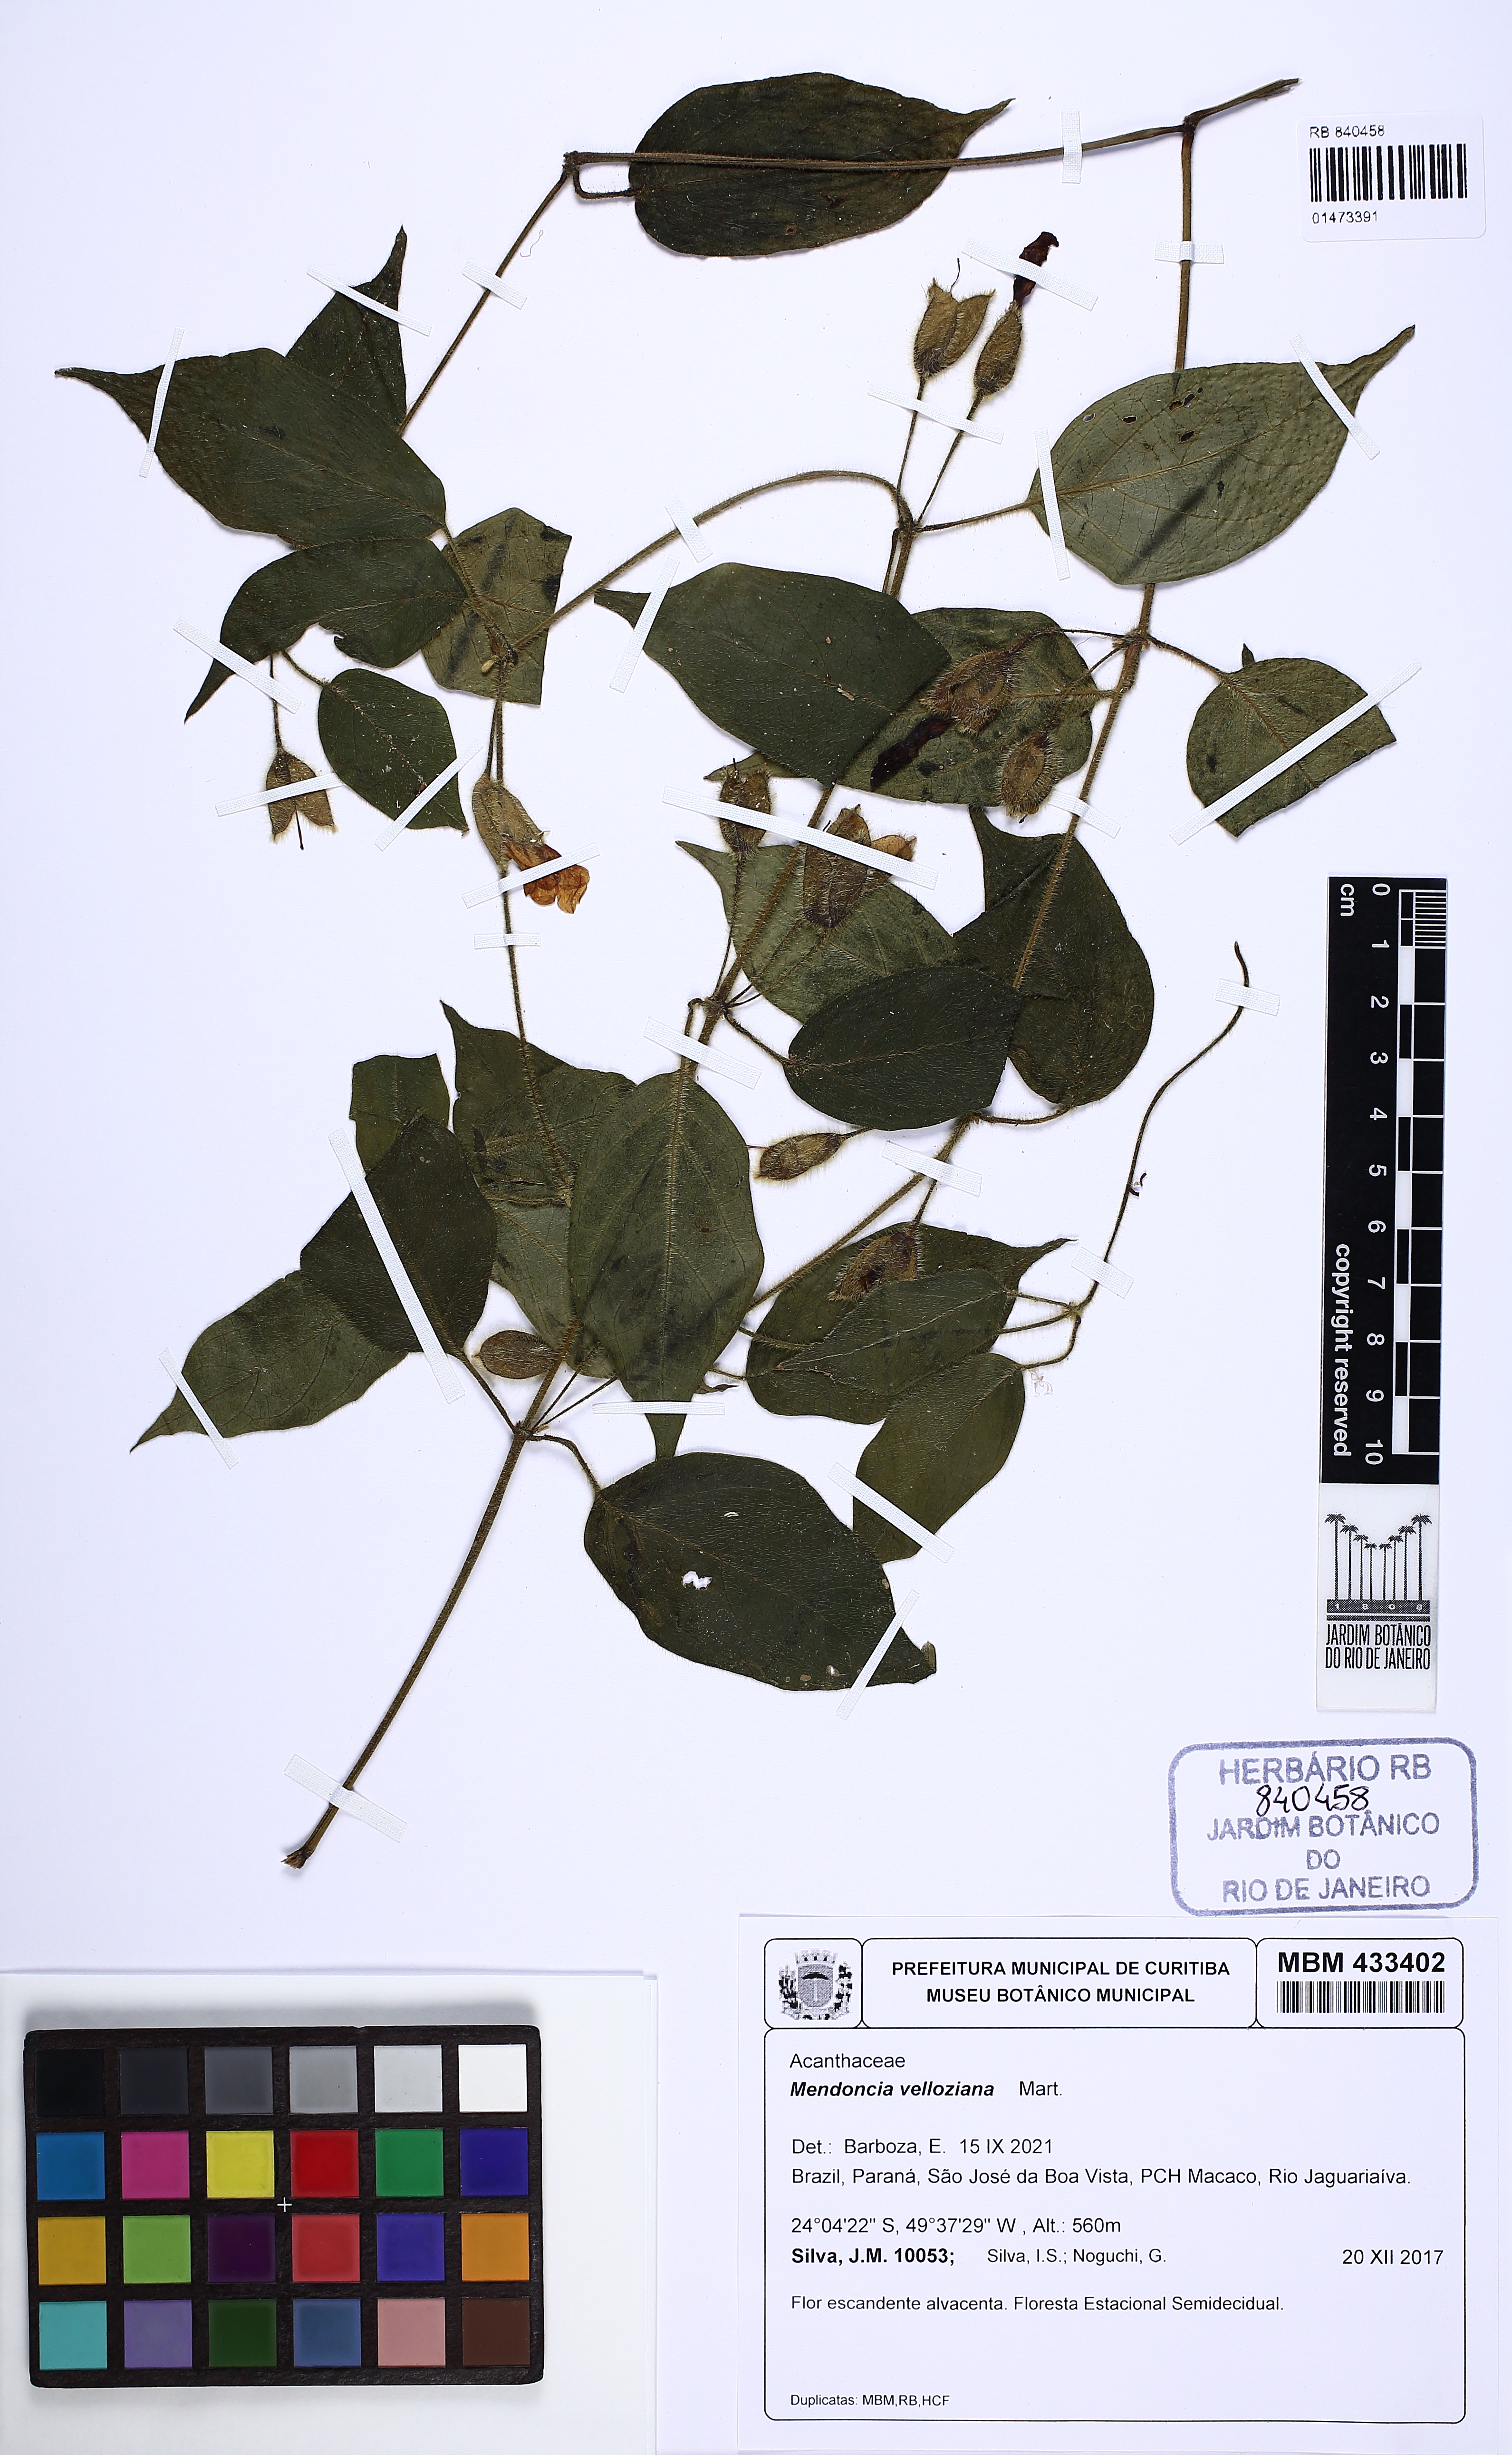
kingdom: Plantae
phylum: Tracheophyta
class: Magnoliopsida
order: Lamiales
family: Acanthaceae
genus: Mendoncia
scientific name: Mendoncia velloziana
